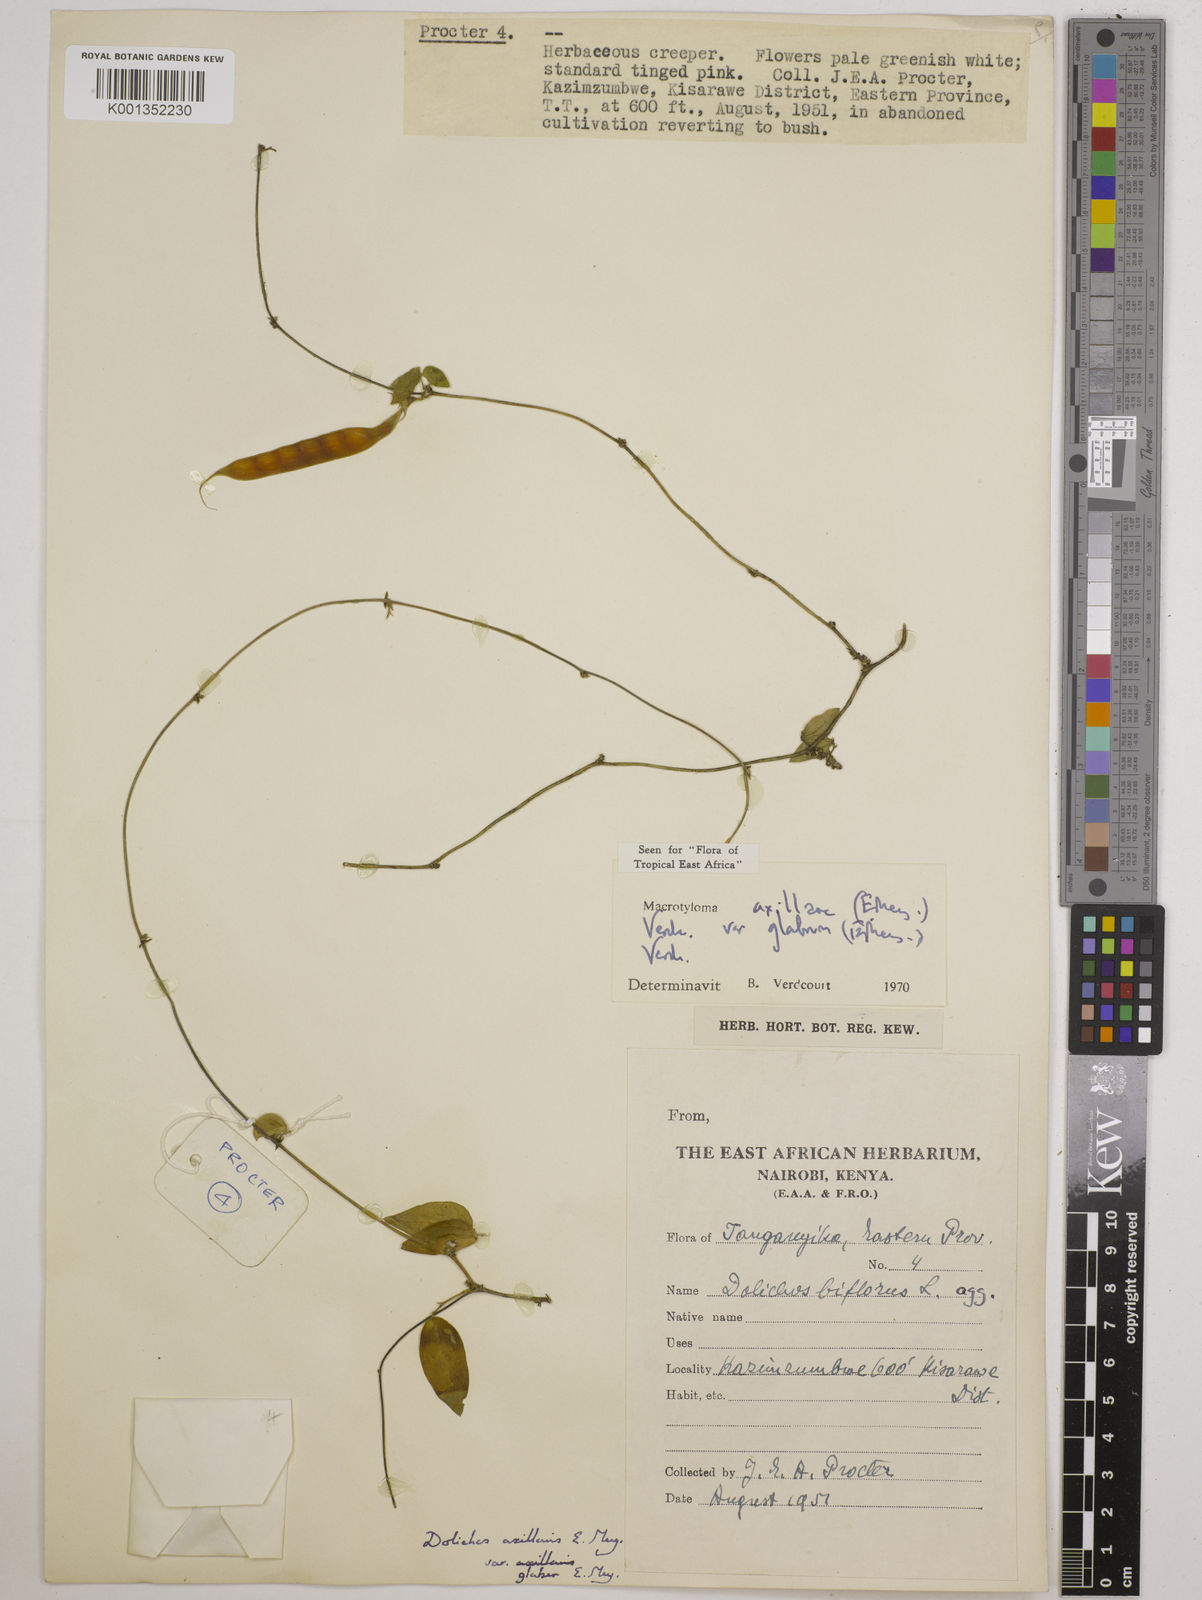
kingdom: Plantae
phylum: Tracheophyta
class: Magnoliopsida
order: Fabales
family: Fabaceae
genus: Macrotyloma
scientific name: Macrotyloma
